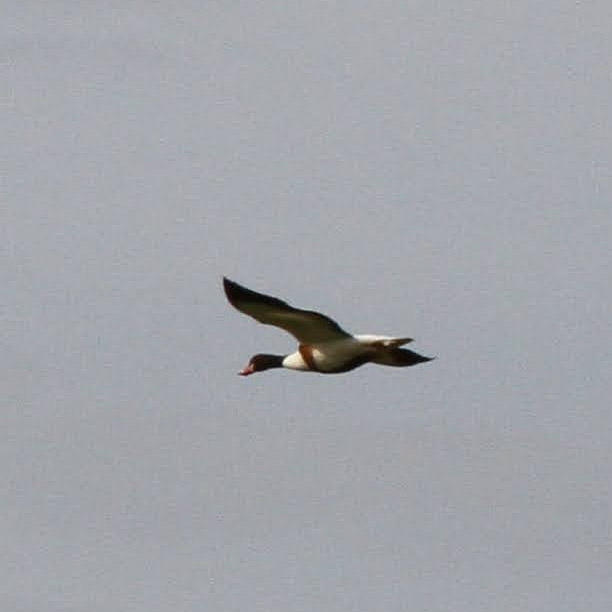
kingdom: Animalia
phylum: Chordata
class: Aves
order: Anseriformes
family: Anatidae
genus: Tadorna
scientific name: Tadorna tadorna
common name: Gravand
